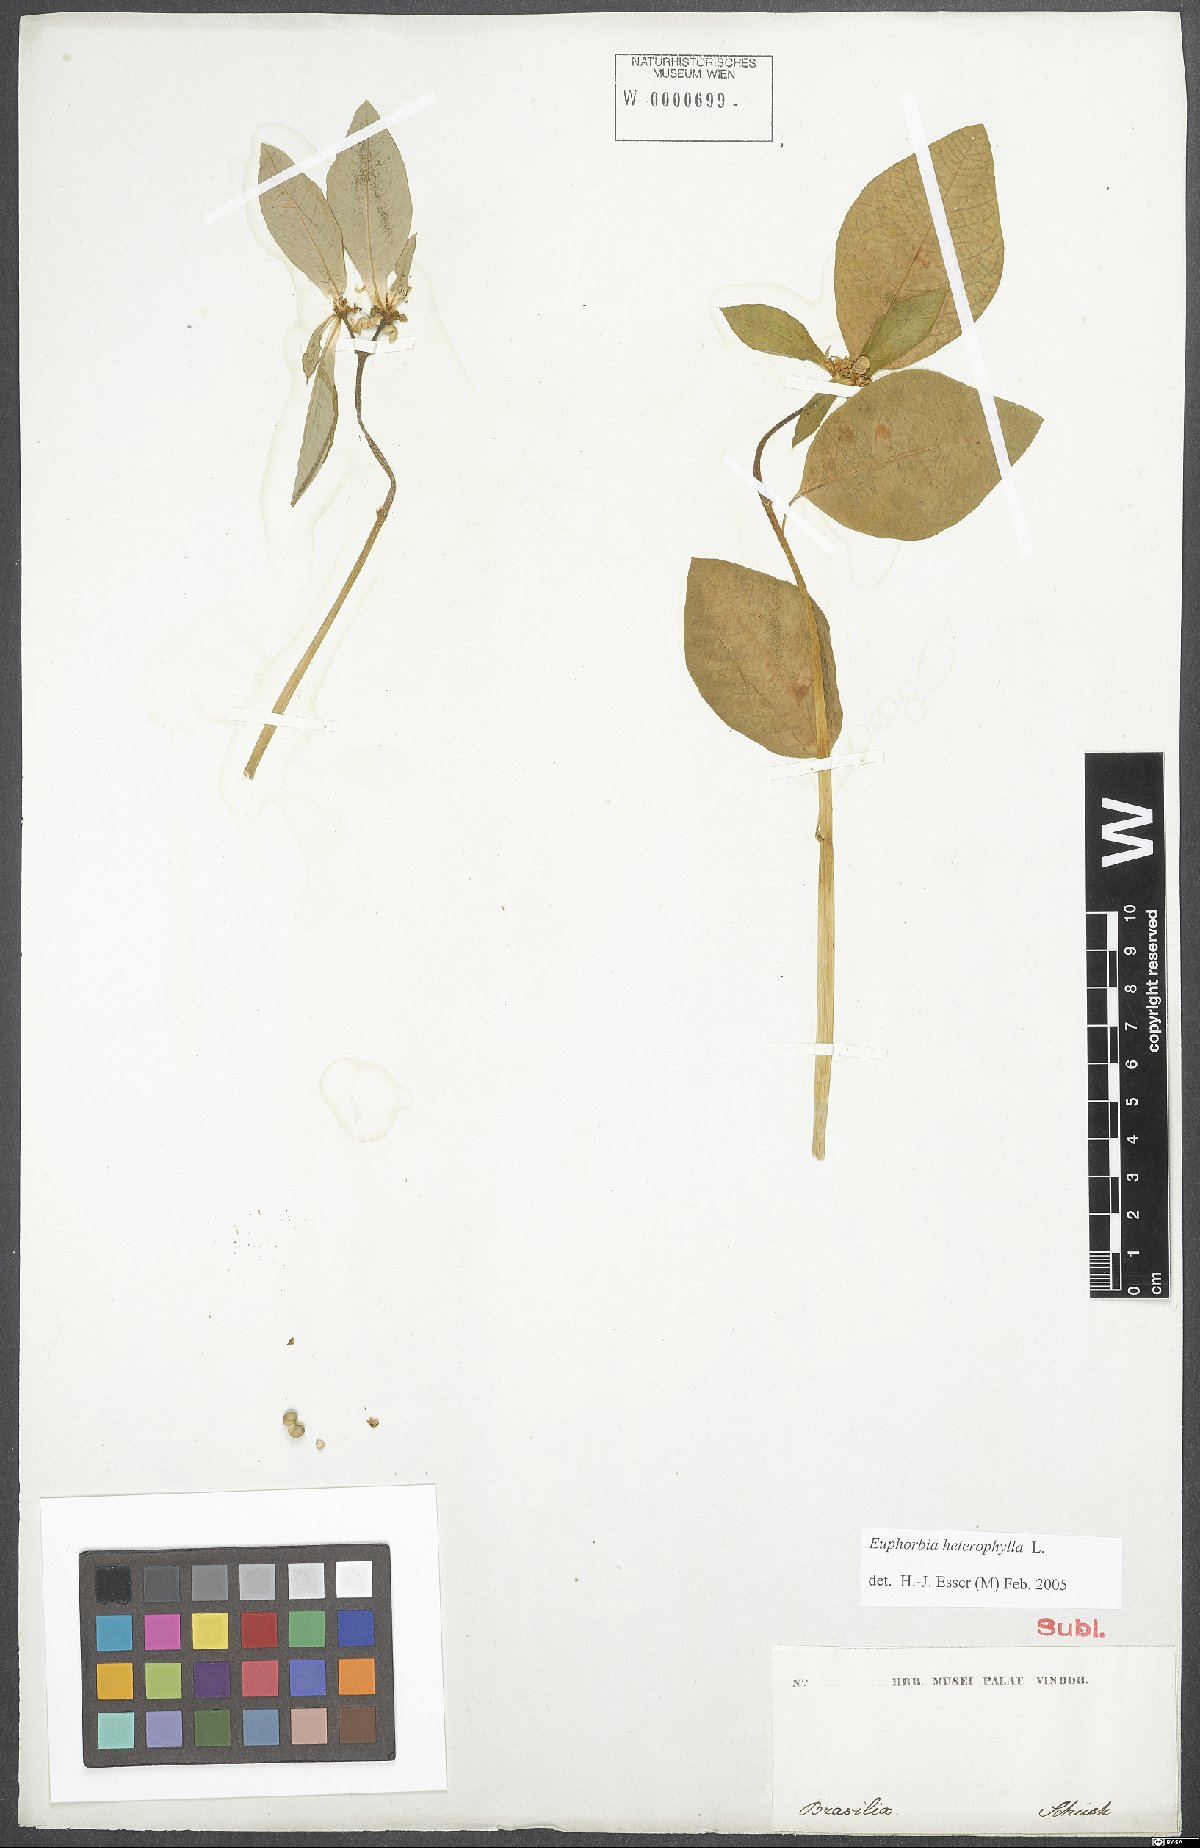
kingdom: Plantae
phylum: Tracheophyta
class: Magnoliopsida
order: Malpighiales
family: Euphorbiaceae
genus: Euphorbia
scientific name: Euphorbia heterophylla
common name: Mexican fireplant
